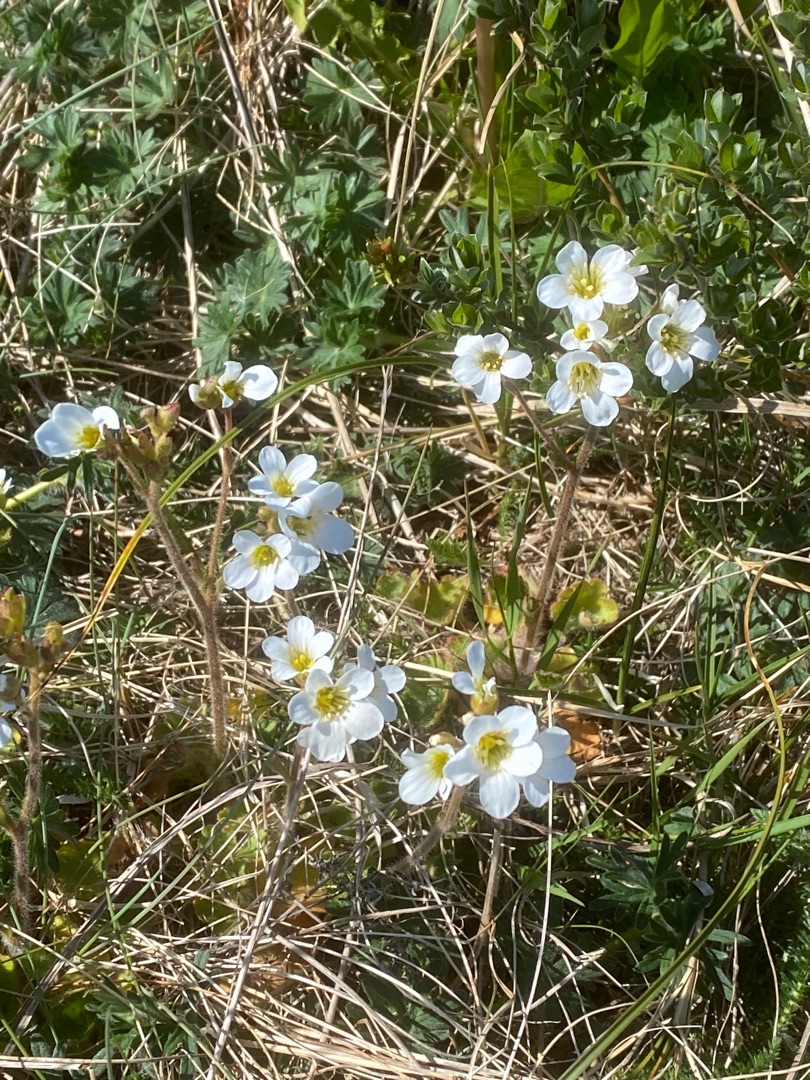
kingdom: Plantae
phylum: Tracheophyta
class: Magnoliopsida
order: Saxifragales
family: Saxifragaceae
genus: Saxifraga
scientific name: Saxifraga granulata
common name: Kornet stenbræk
